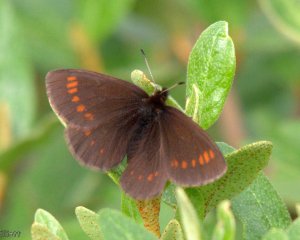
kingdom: Animalia
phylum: Arthropoda
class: Insecta
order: Lepidoptera
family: Nymphalidae
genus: Erebia
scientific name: Erebia pawloskii
